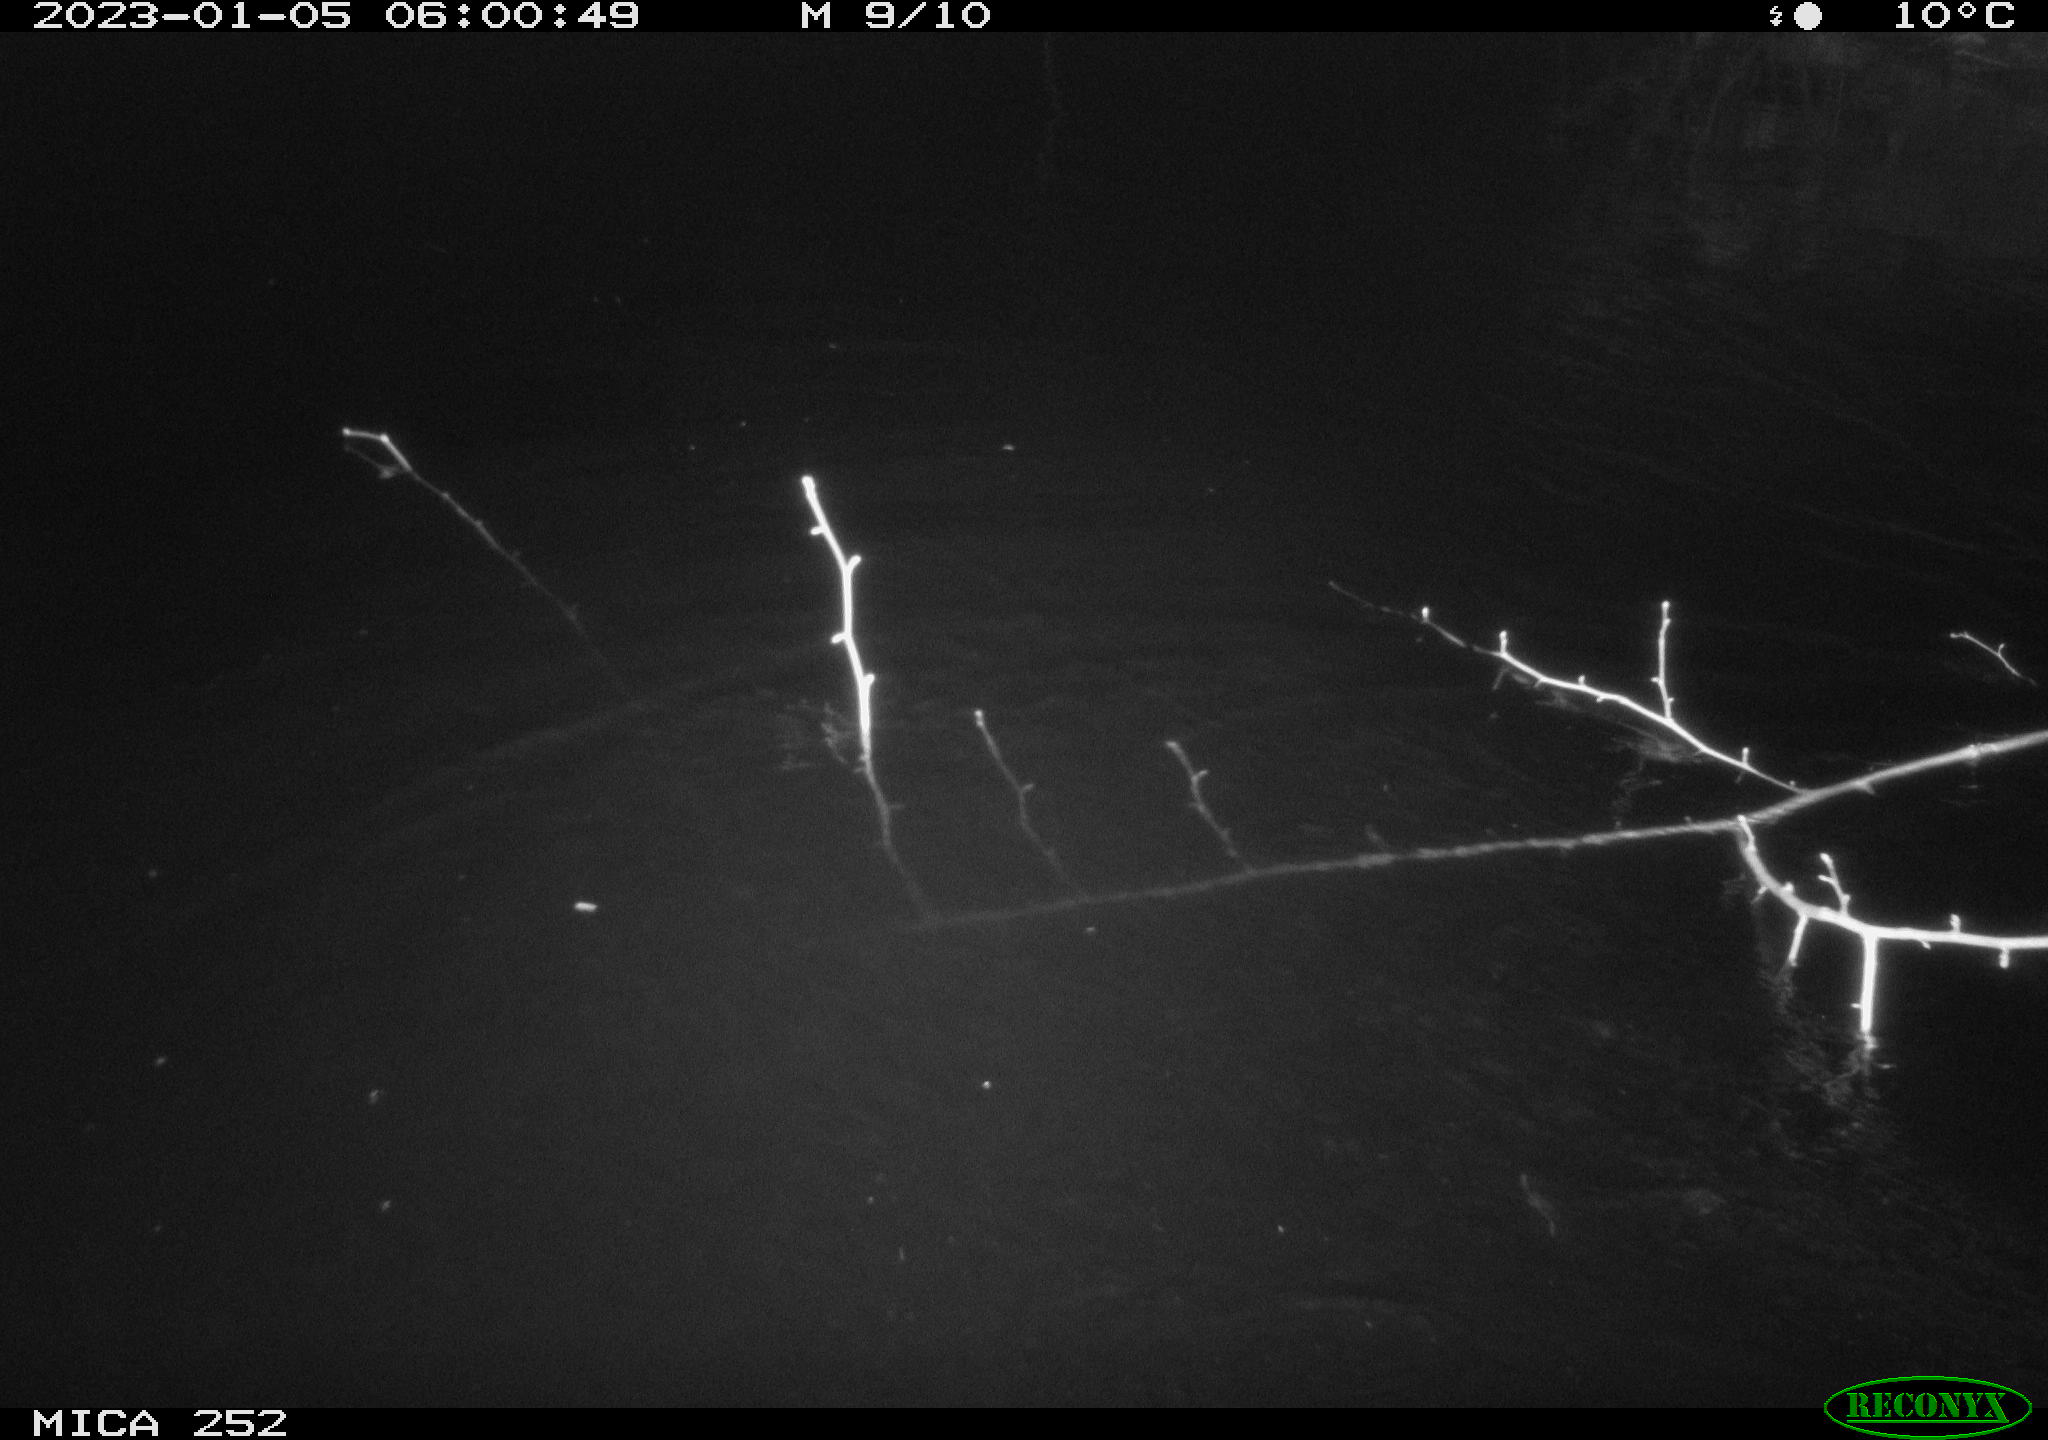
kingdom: Animalia
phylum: Chordata
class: Mammalia
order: Rodentia
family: Castoridae
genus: Castor
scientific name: Castor fiber
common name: Eurasian beaver
